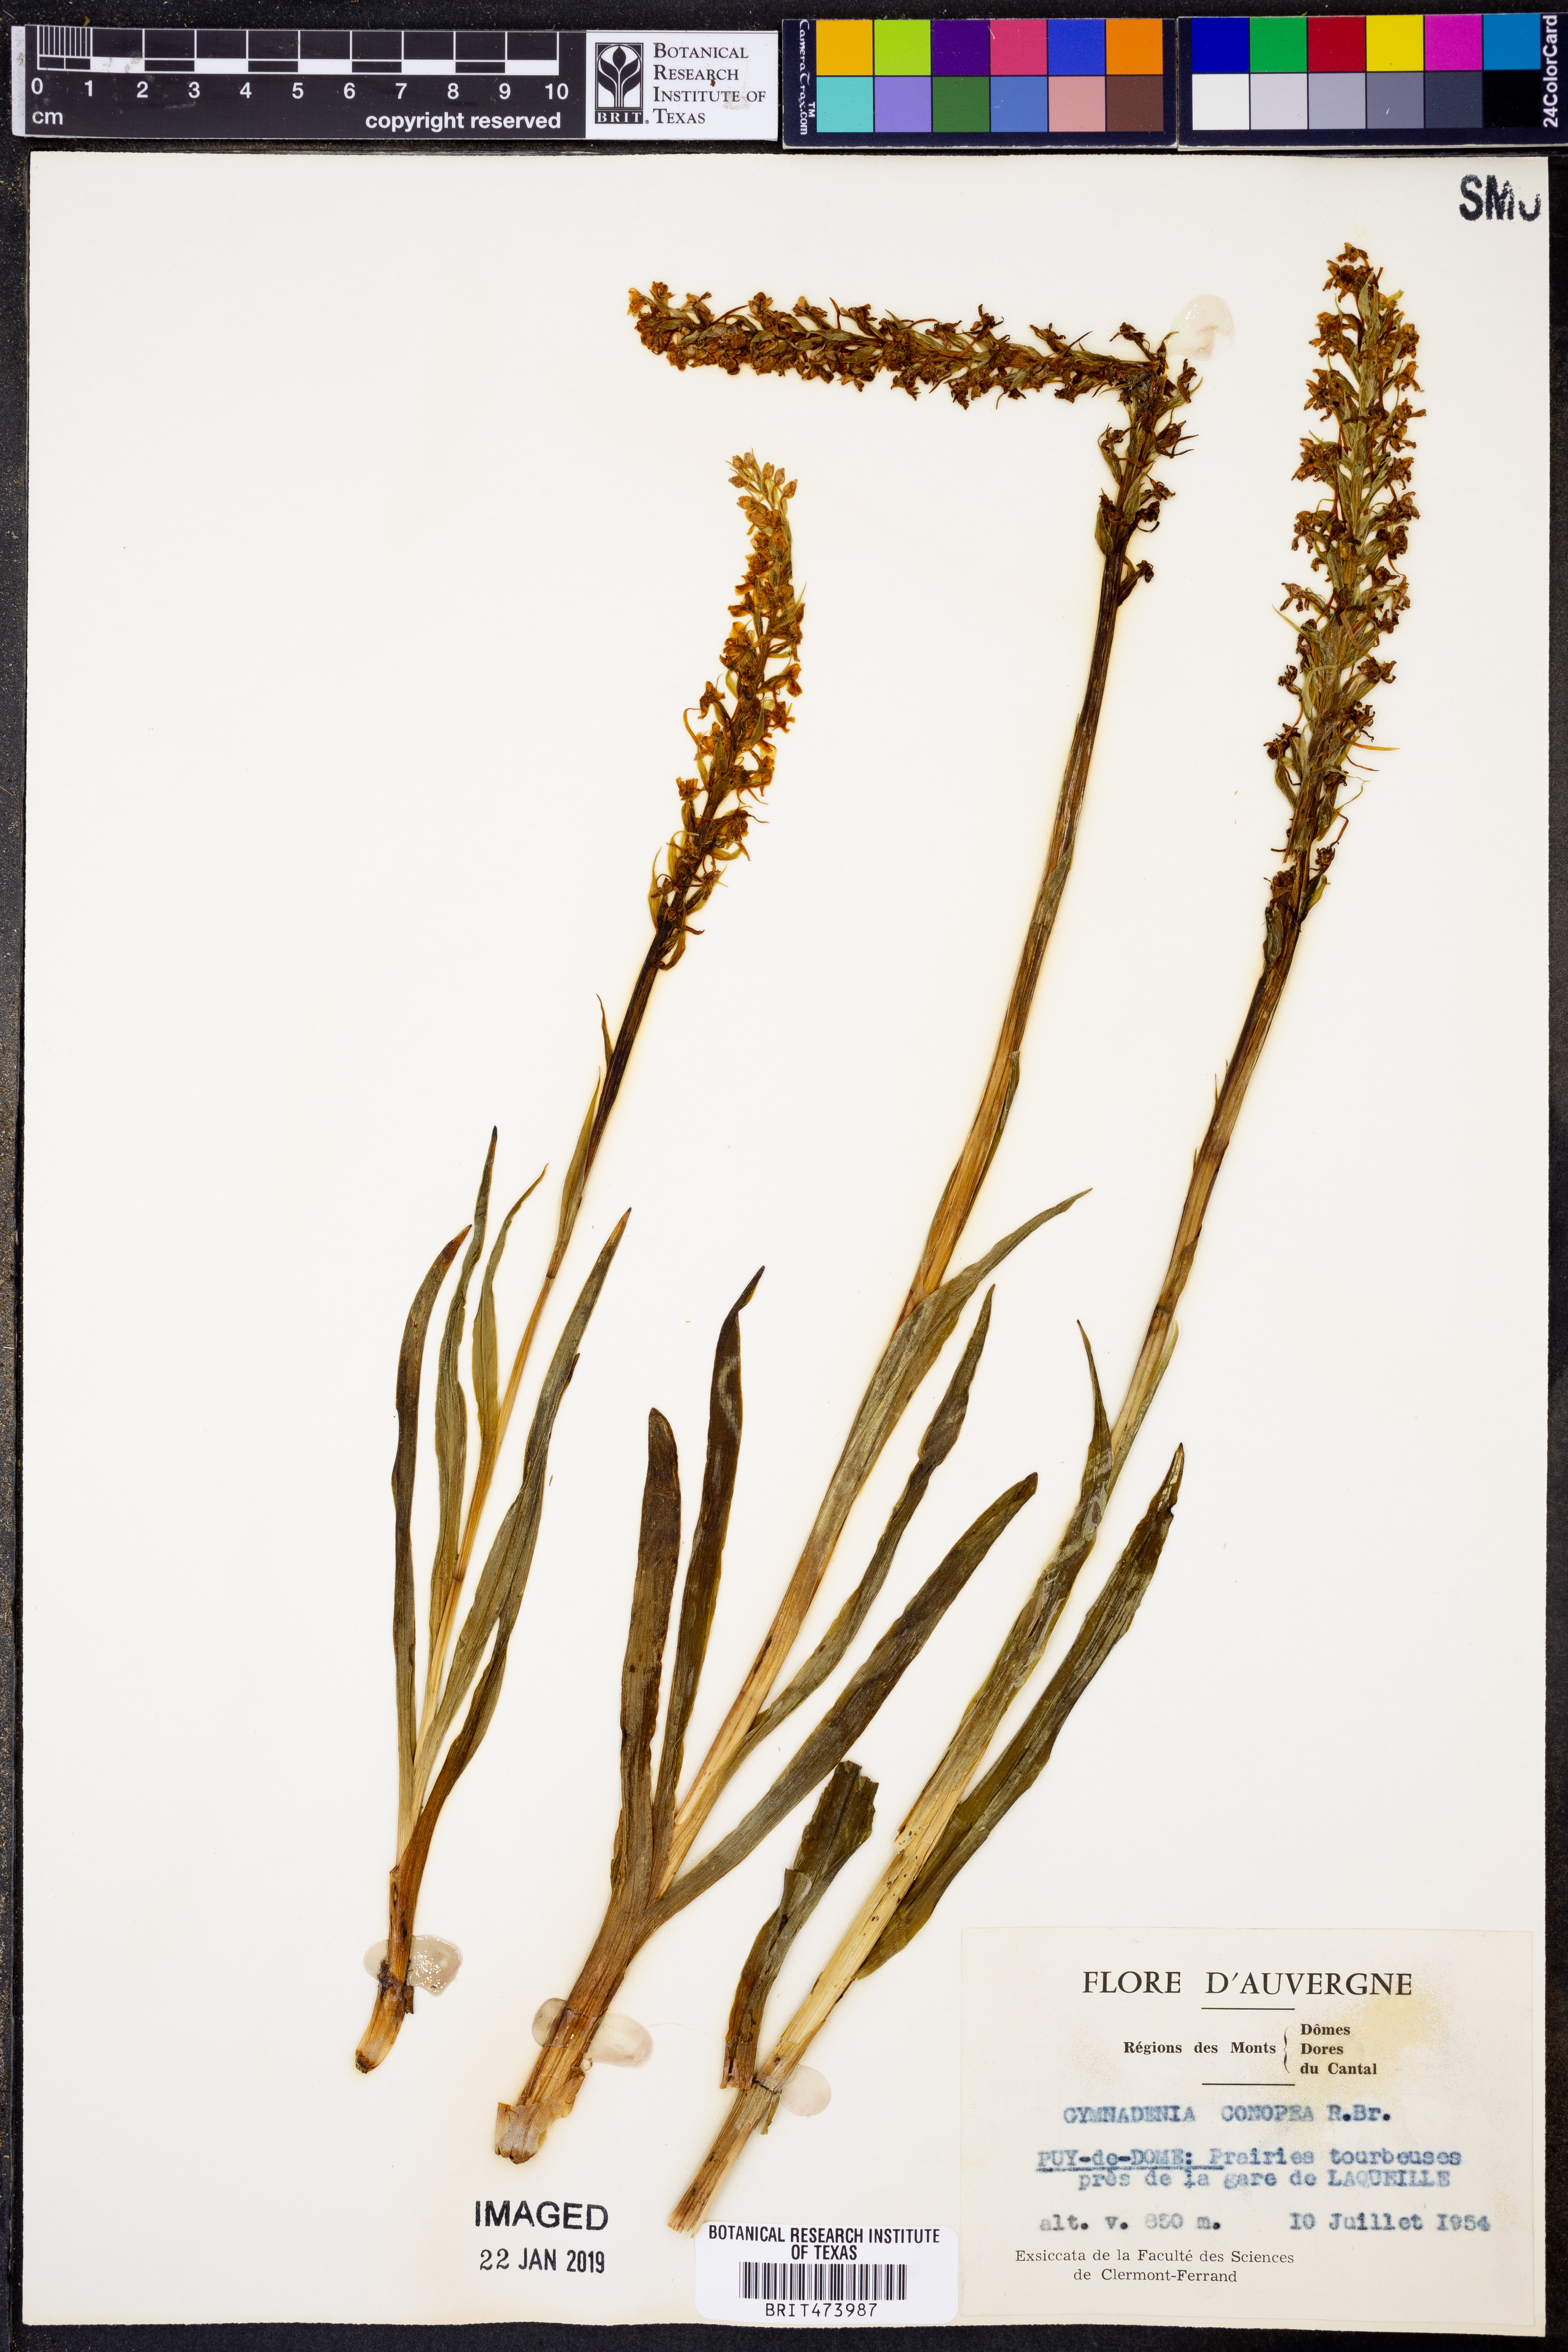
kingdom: Plantae
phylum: Tracheophyta
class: Liliopsida
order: Asparagales
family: Orchidaceae
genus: Gymnadenia
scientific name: Gymnadenia conopea
